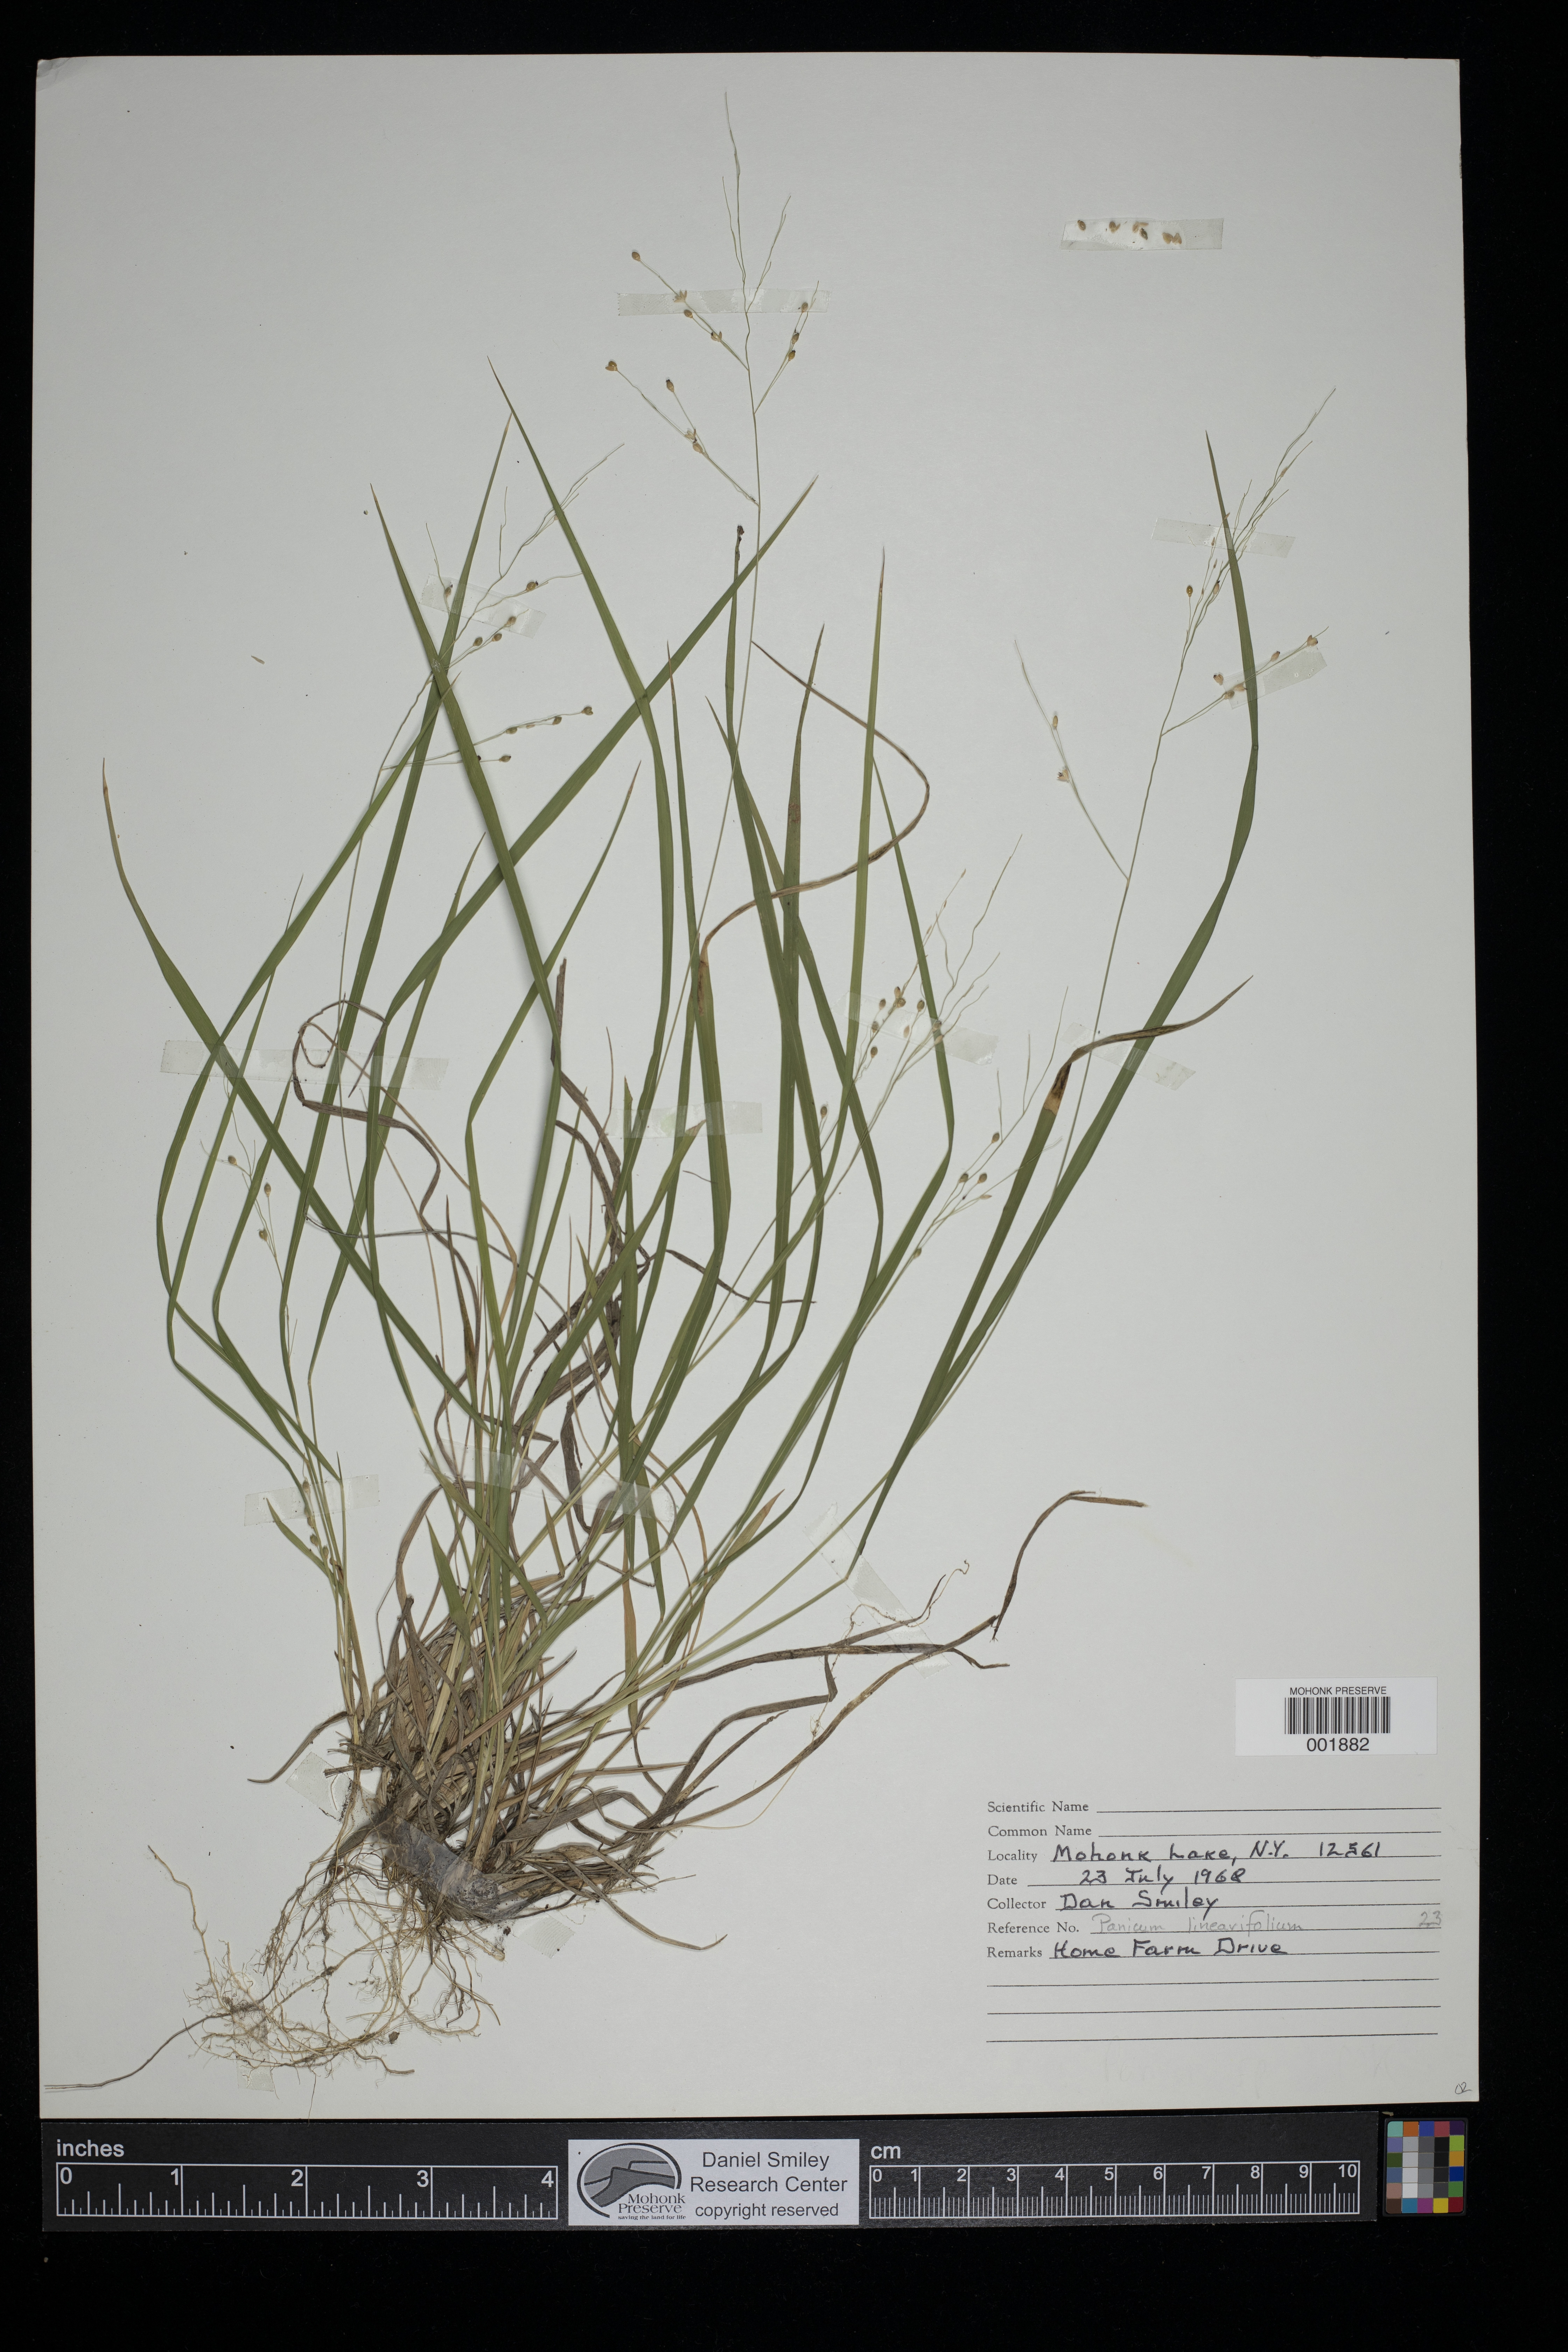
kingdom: Plantae
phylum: Tracheophyta
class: Liliopsida
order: Poales
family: Poaceae
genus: Dichanthelium
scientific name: Dichanthelium linearifolium
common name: Linear-leaved panicgrass
